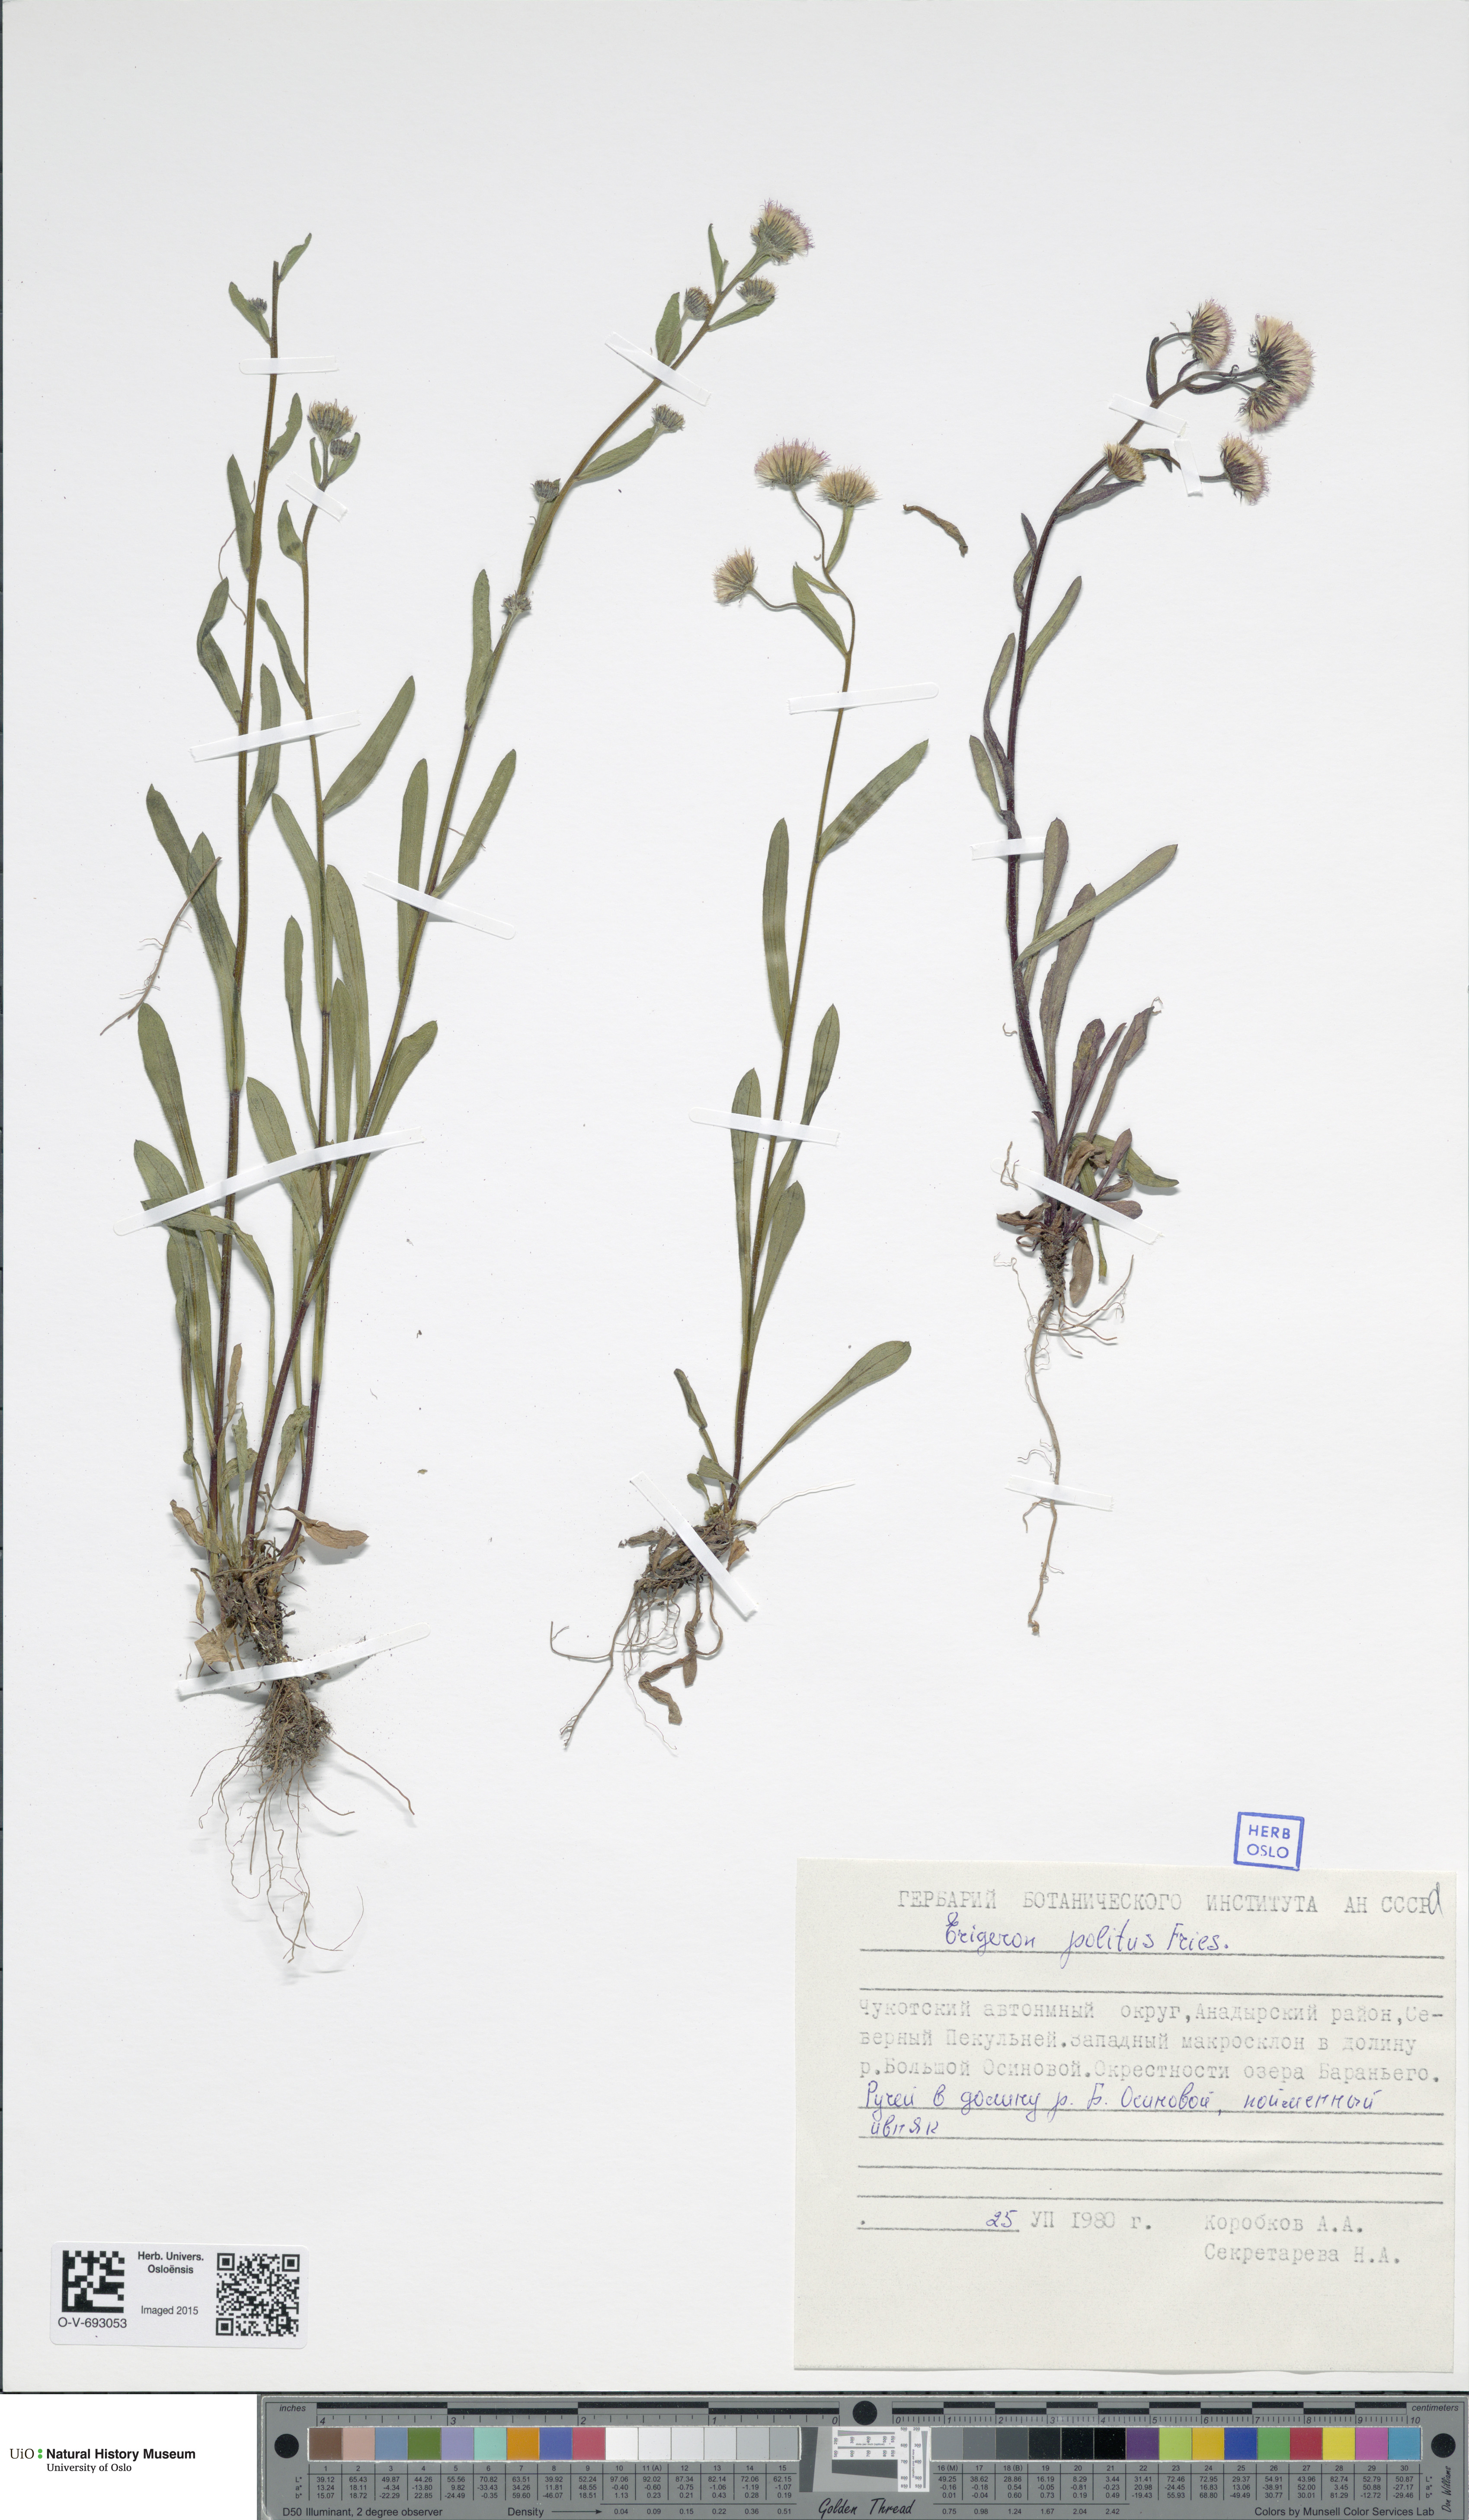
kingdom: Plantae
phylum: Tracheophyta
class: Magnoliopsida
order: Asterales
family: Asteraceae
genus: Erigeron
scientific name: Erigeron politus
